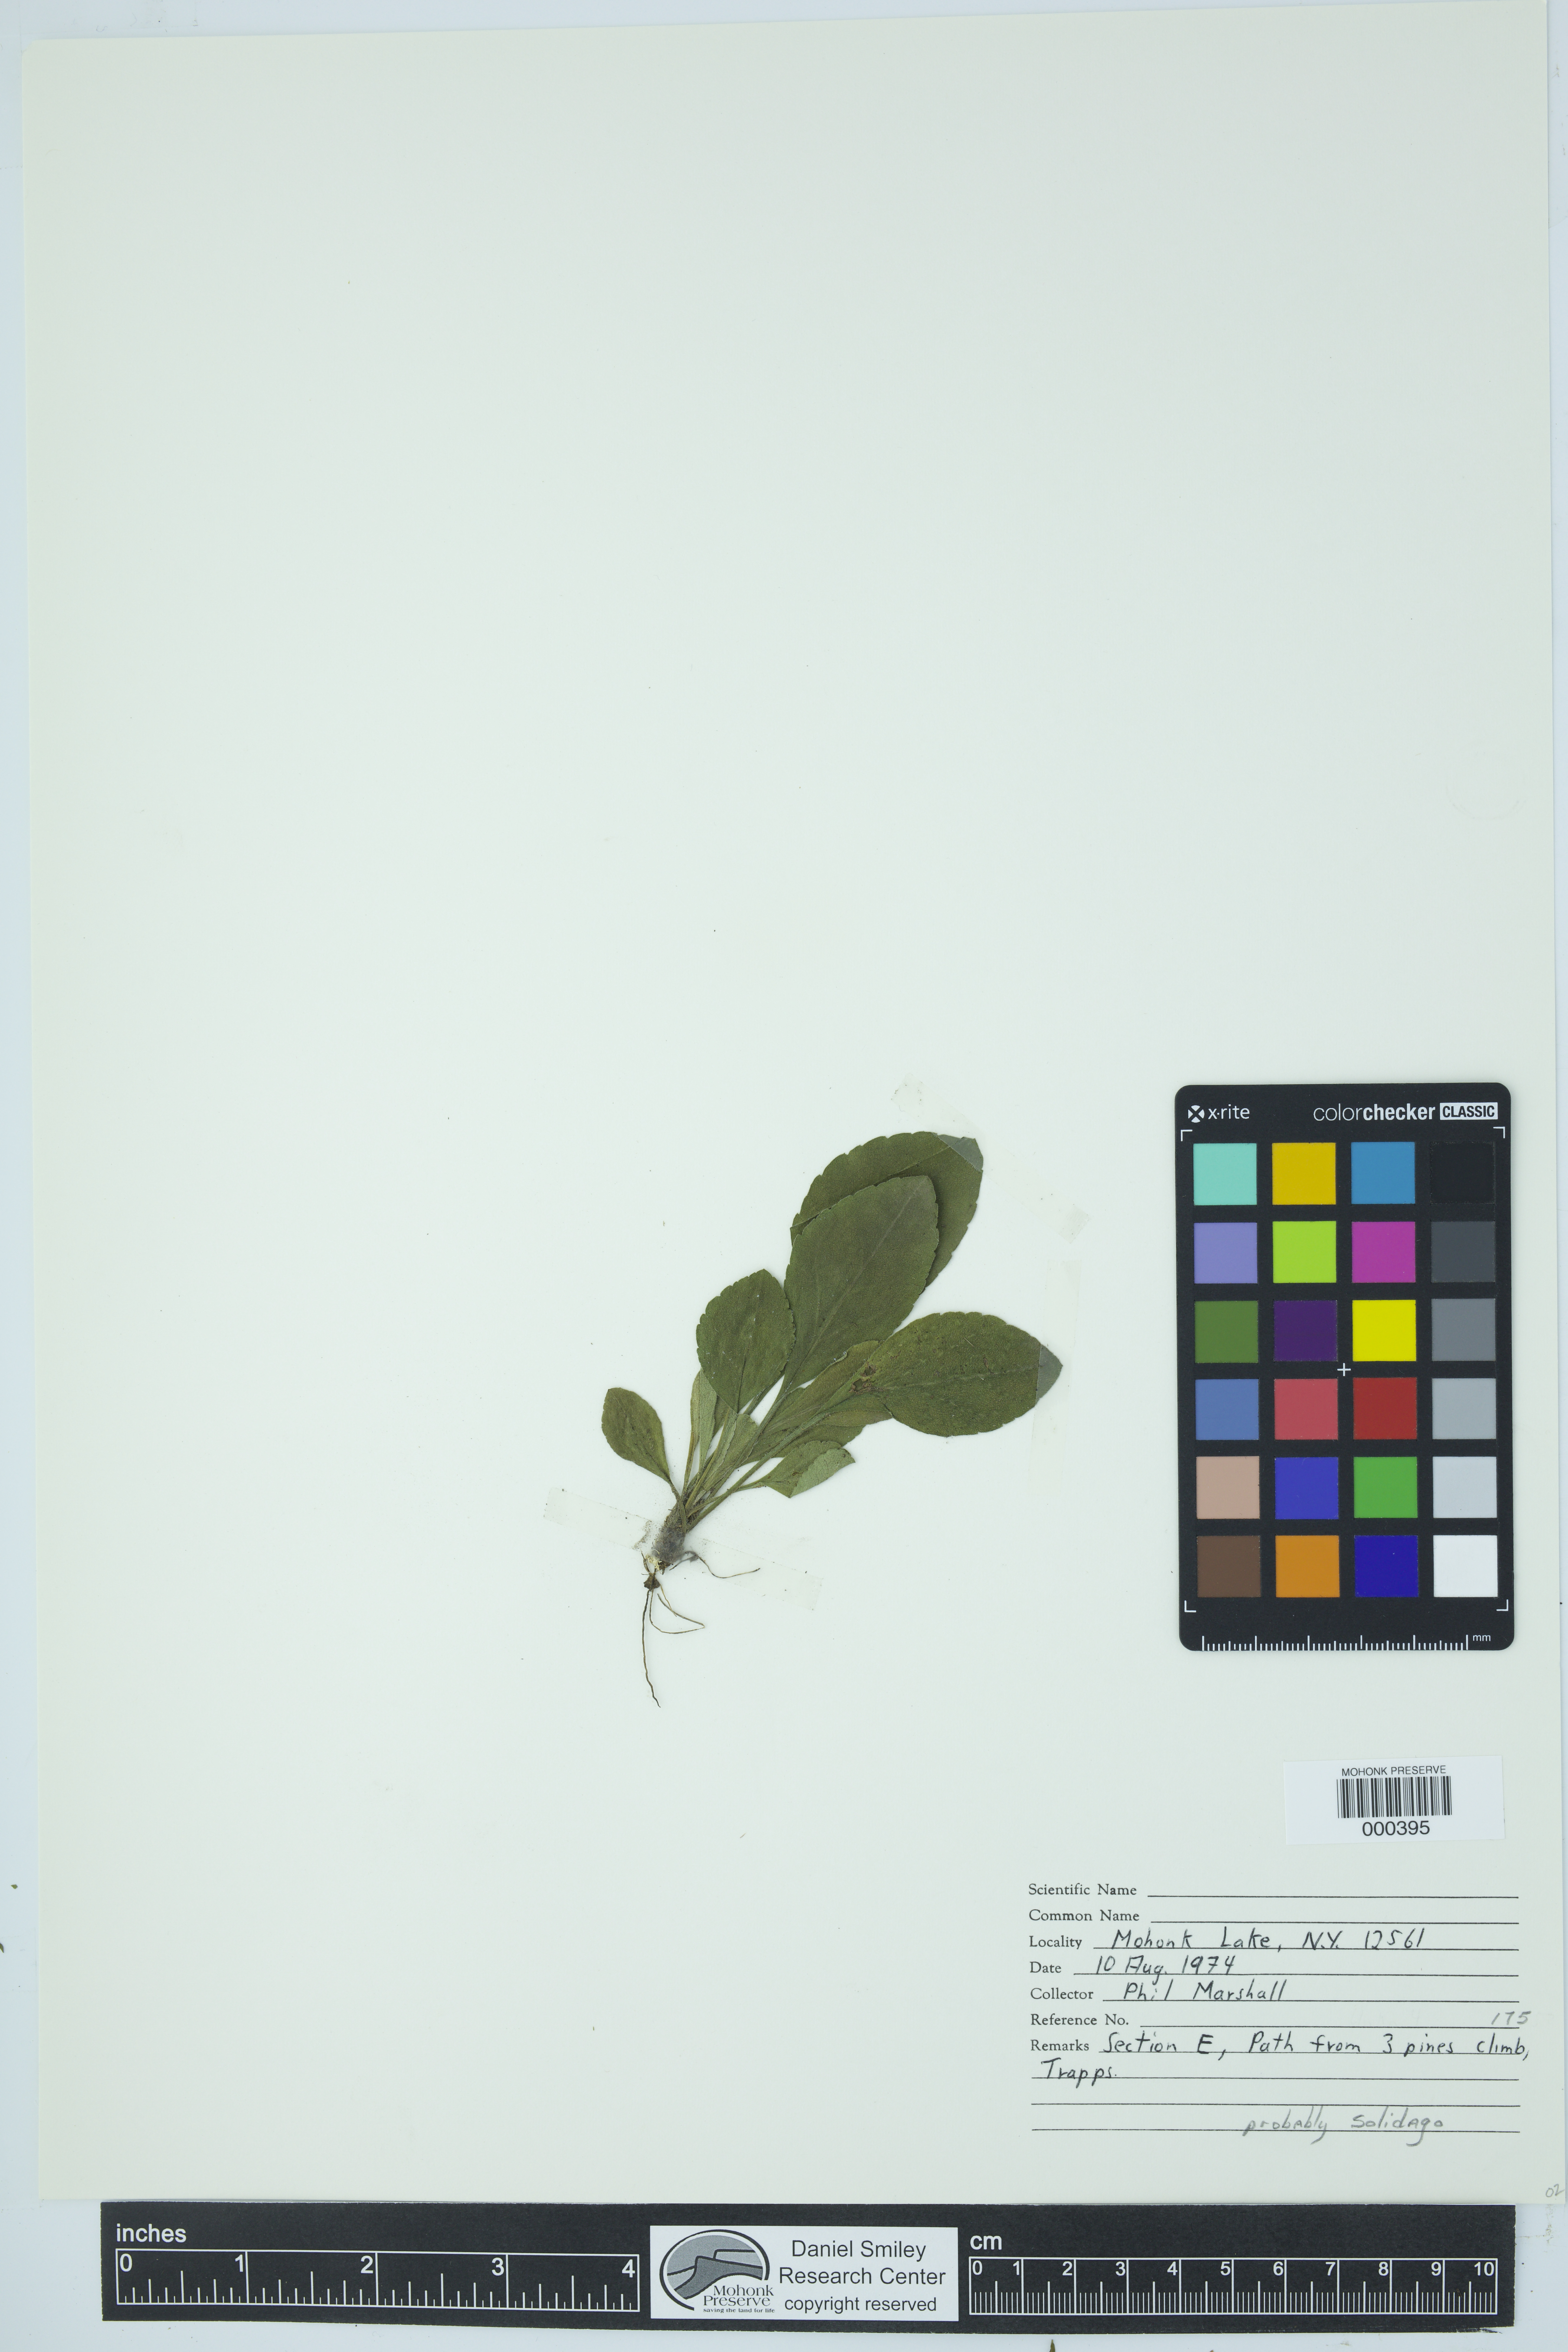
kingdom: Plantae
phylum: Tracheophyta
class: Magnoliopsida
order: Asterales
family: Asteraceae
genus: Solidago
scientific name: Solidago
